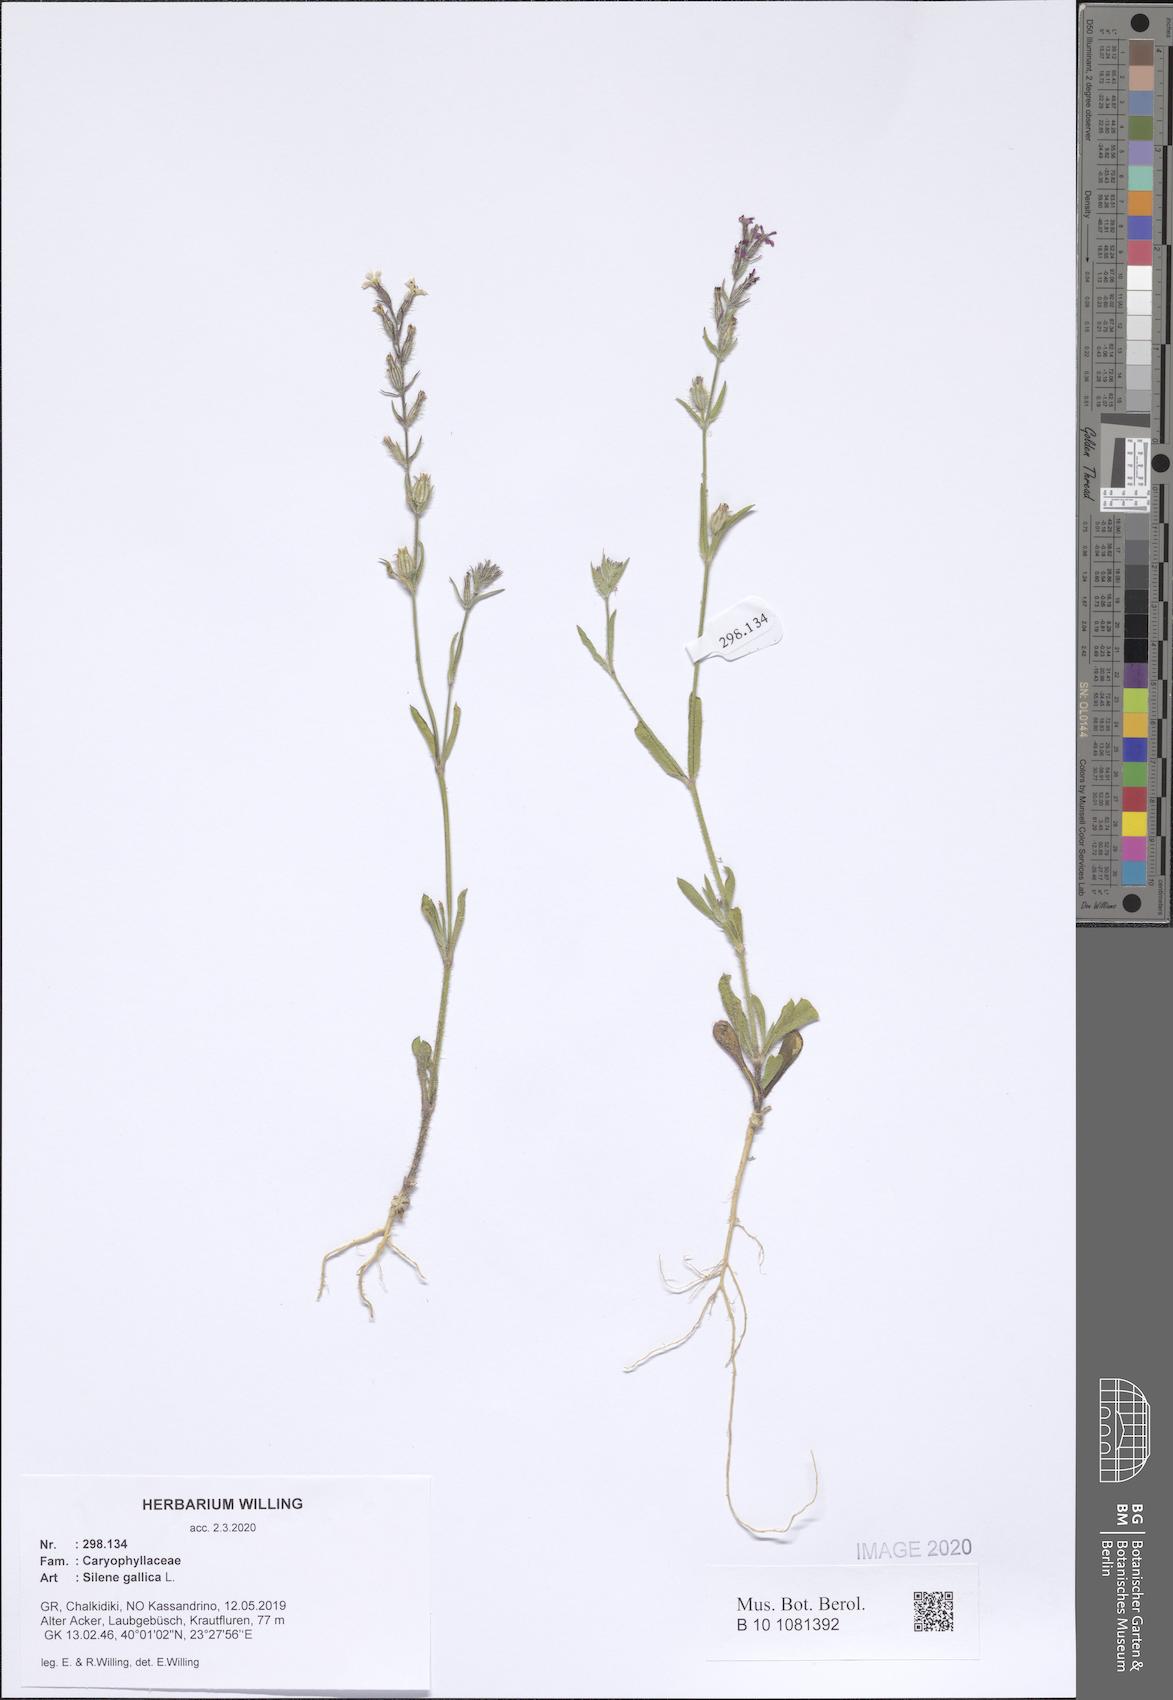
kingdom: Plantae
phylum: Tracheophyta
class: Magnoliopsida
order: Caryophyllales
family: Caryophyllaceae
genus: Silene
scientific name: Silene gallica
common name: Small-flowered catchfly
